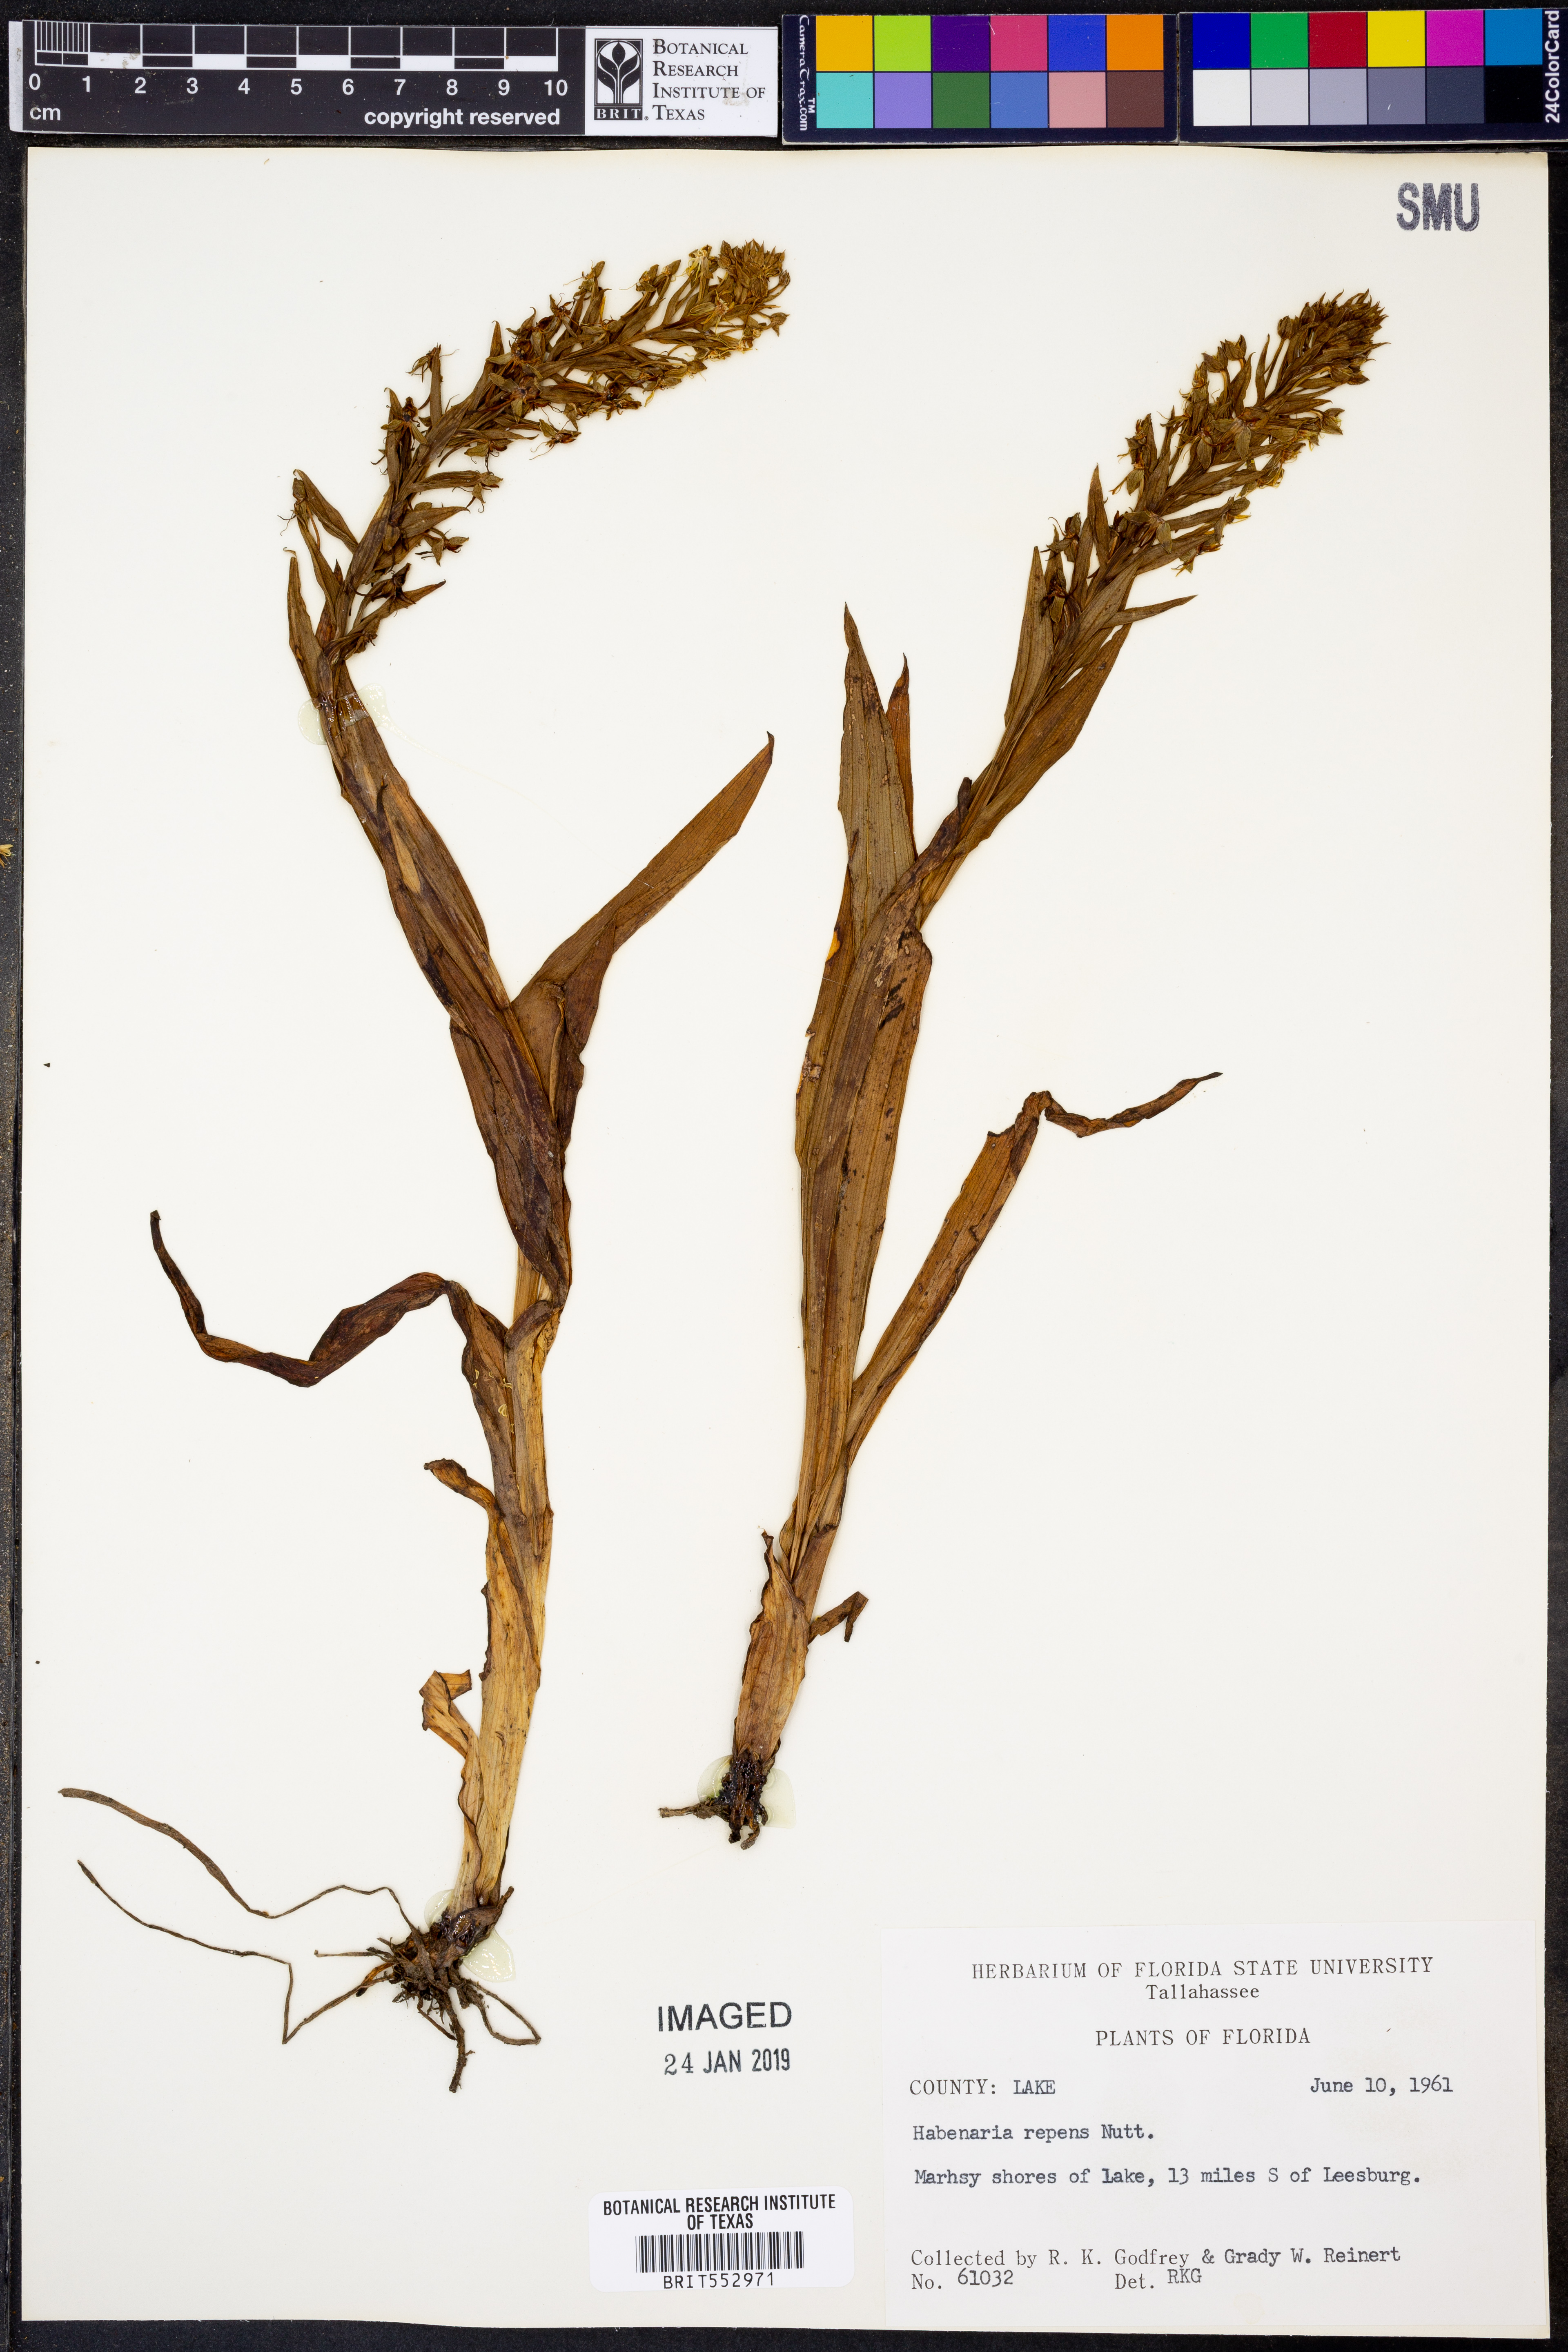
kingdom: Plantae
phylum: Tracheophyta
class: Liliopsida
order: Asparagales
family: Orchidaceae
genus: Habenaria
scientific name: Habenaria repens
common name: Water orchid
